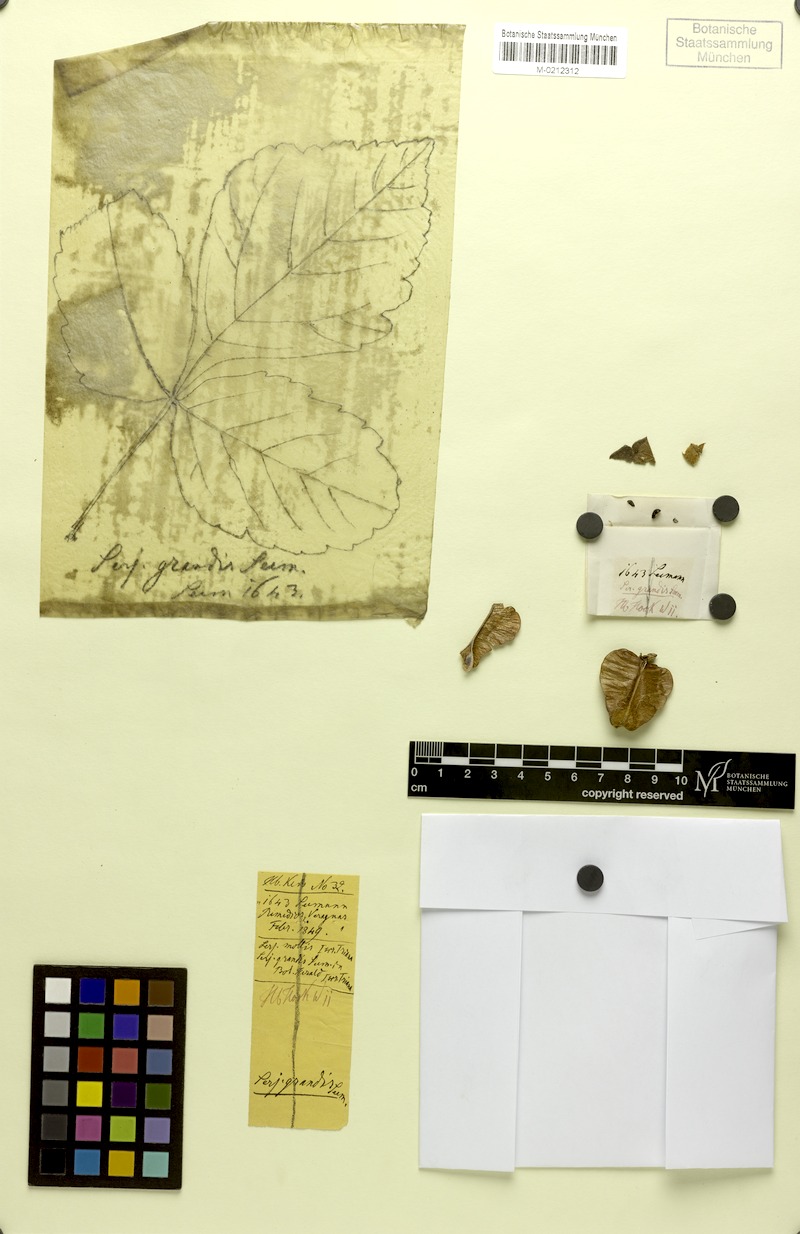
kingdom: Plantae
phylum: Tracheophyta
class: Magnoliopsida
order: Sapindales
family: Sapindaceae
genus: Serjania
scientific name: Serjania grandis
